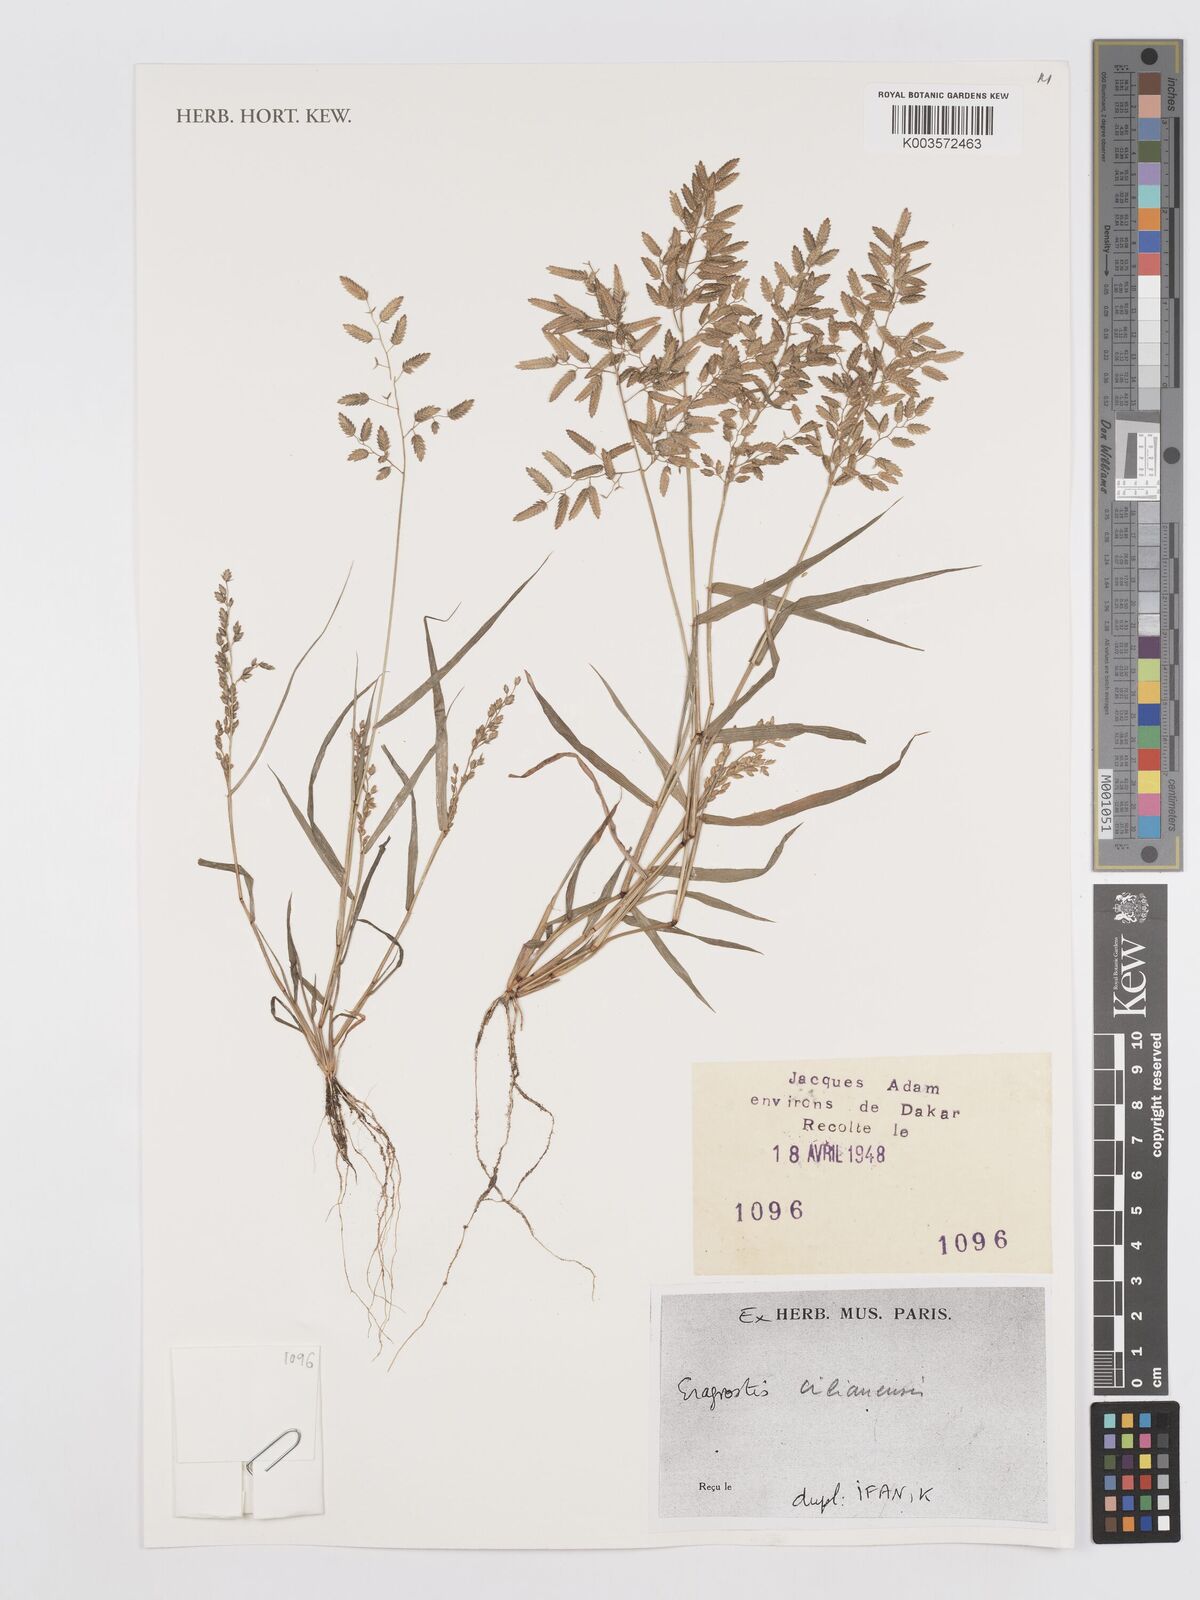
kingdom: Plantae
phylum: Tracheophyta
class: Liliopsida
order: Poales
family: Poaceae
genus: Eragrostis
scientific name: Eragrostis cilianensis
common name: Stinkgrass
